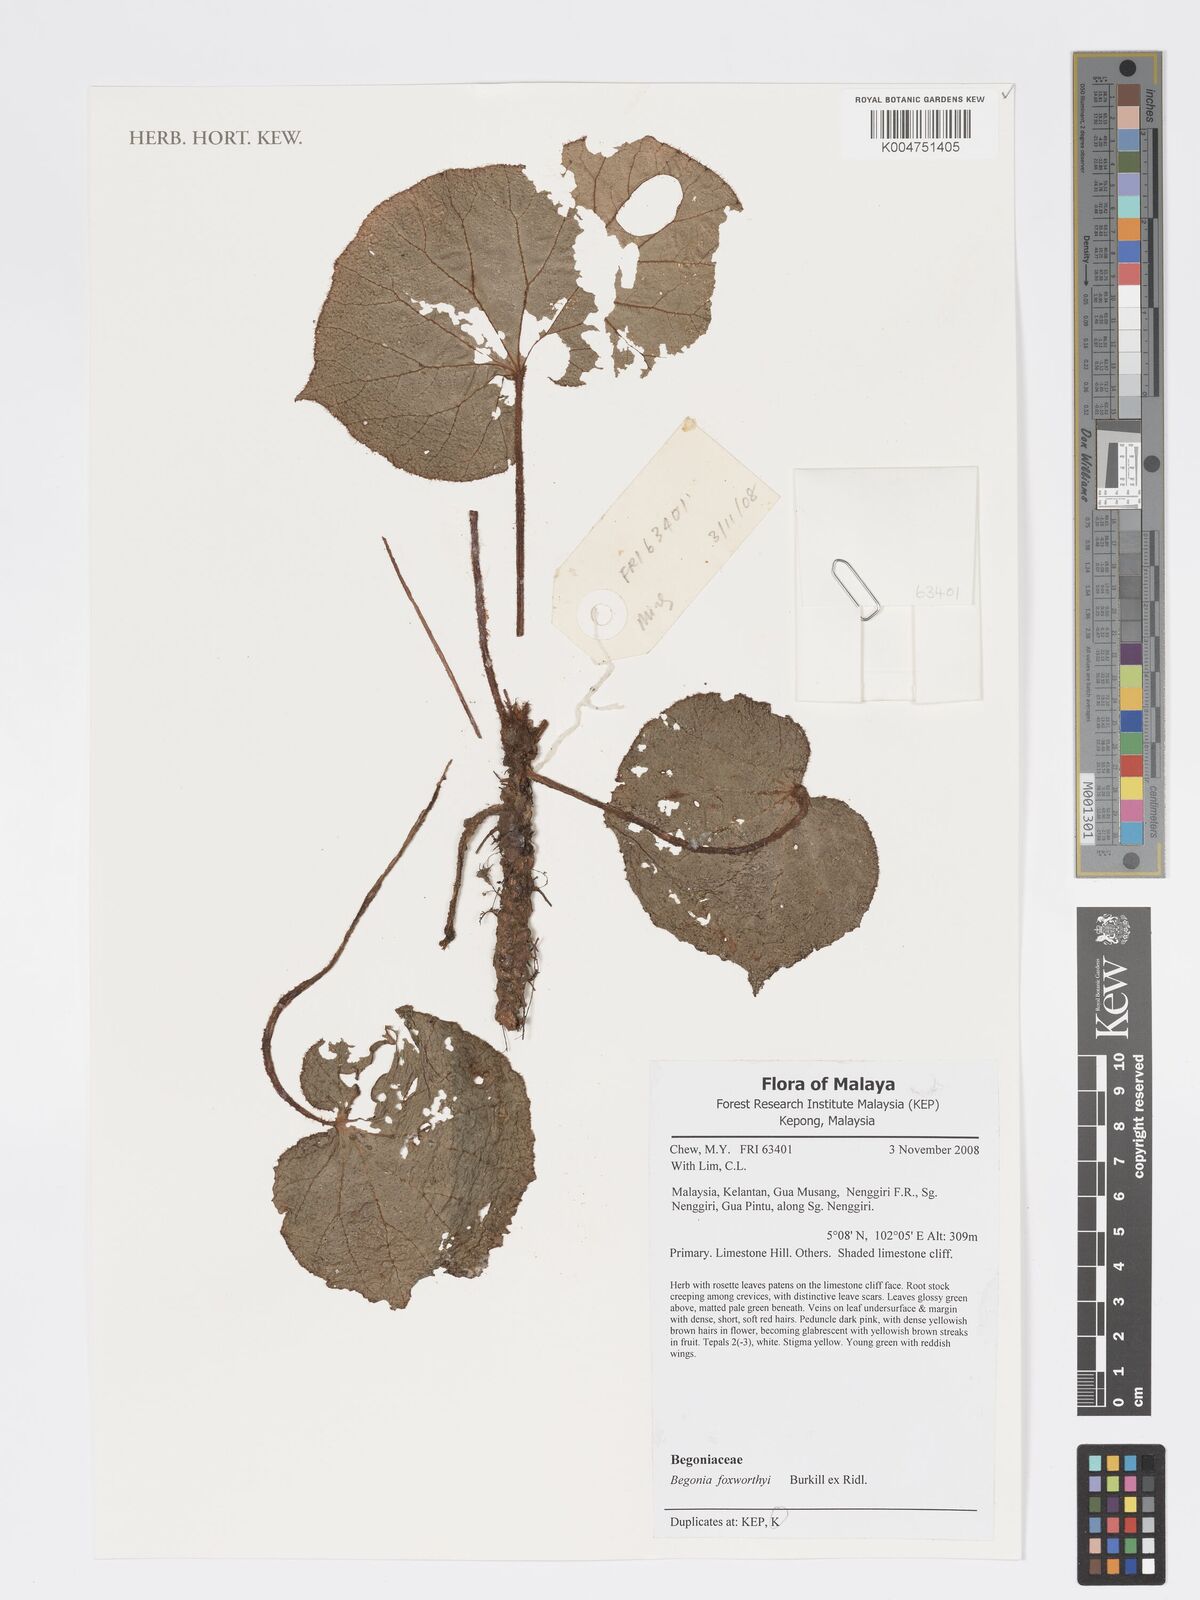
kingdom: Plantae
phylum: Tracheophyta
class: Magnoliopsida
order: Cucurbitales
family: Begoniaceae
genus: Begonia
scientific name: Begonia foxworthyi
